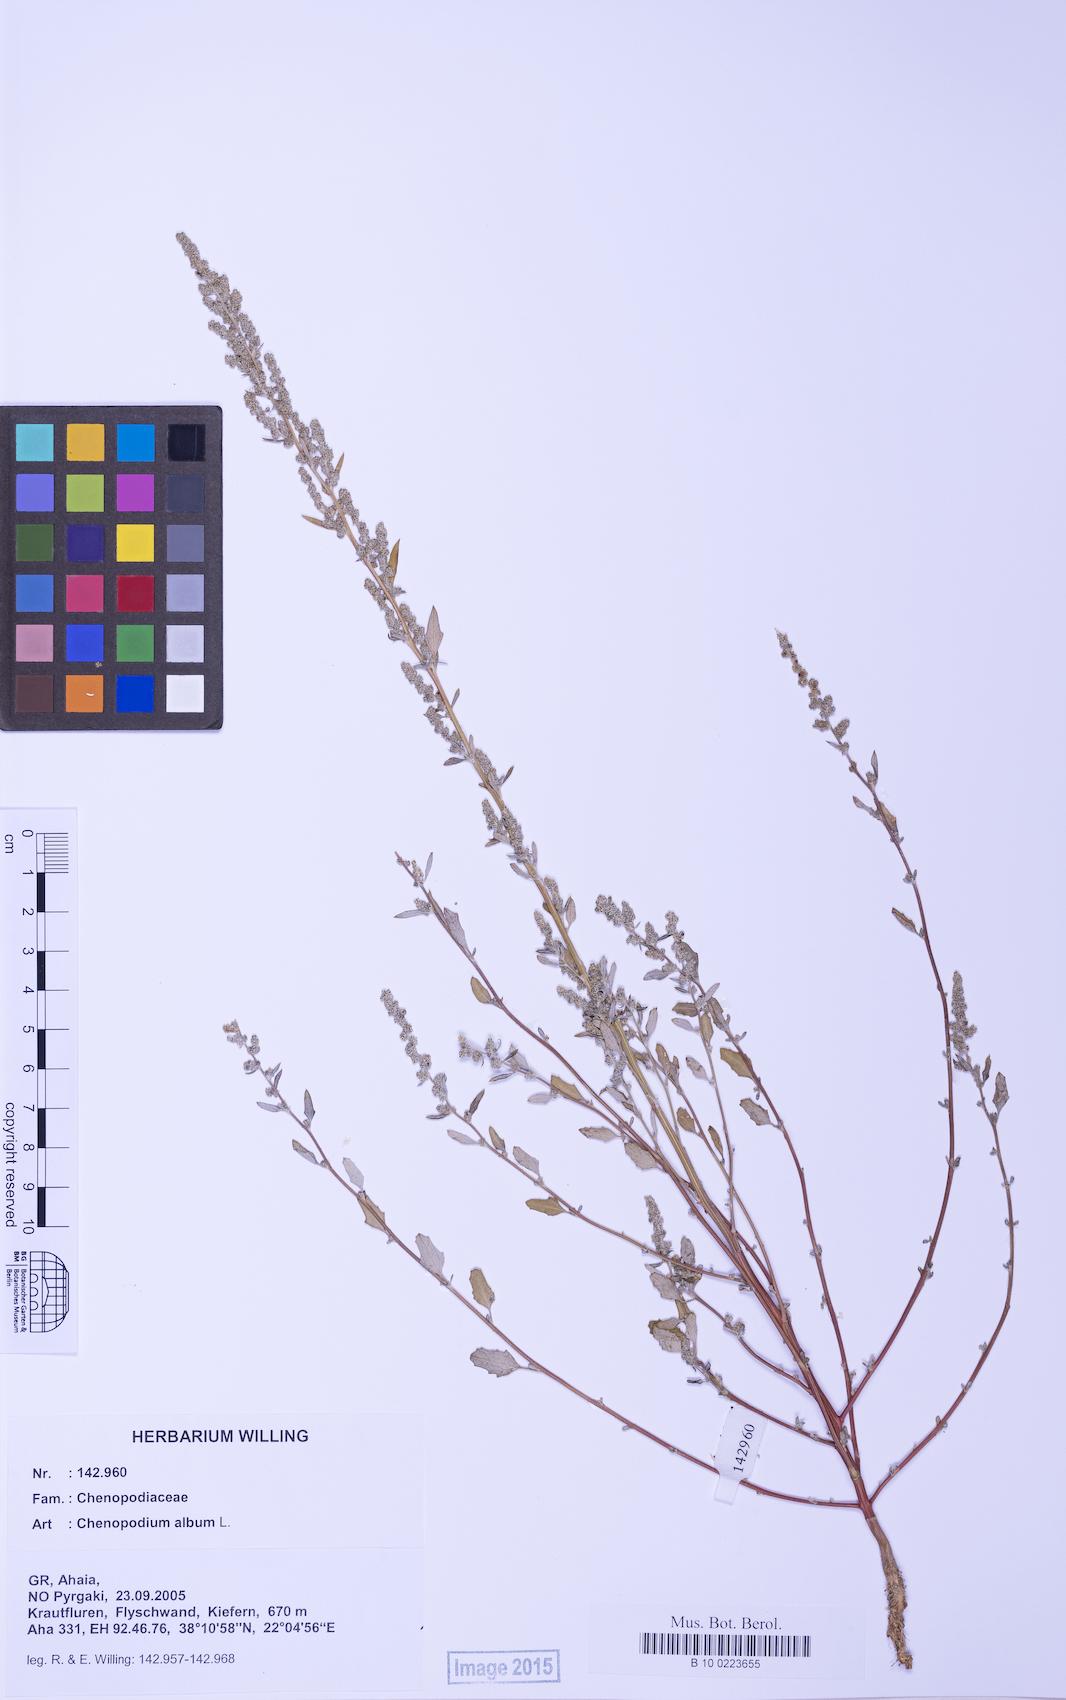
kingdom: Plantae
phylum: Tracheophyta
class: Magnoliopsida
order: Caryophyllales
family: Amaranthaceae
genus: Chenopodium
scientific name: Chenopodium album
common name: Fat-hen
